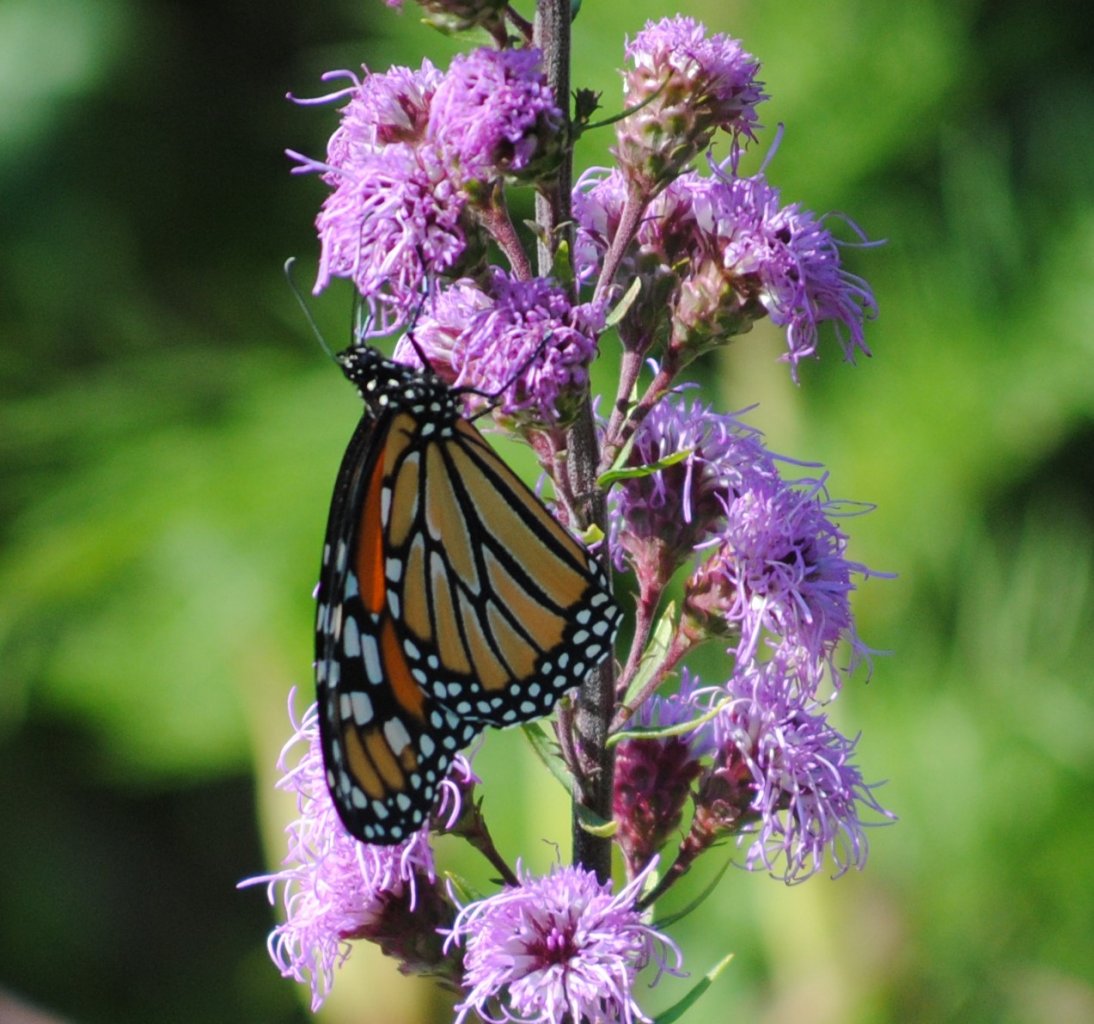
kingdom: Animalia
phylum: Arthropoda
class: Insecta
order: Lepidoptera
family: Nymphalidae
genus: Danaus
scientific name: Danaus plexippus
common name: Monarch
